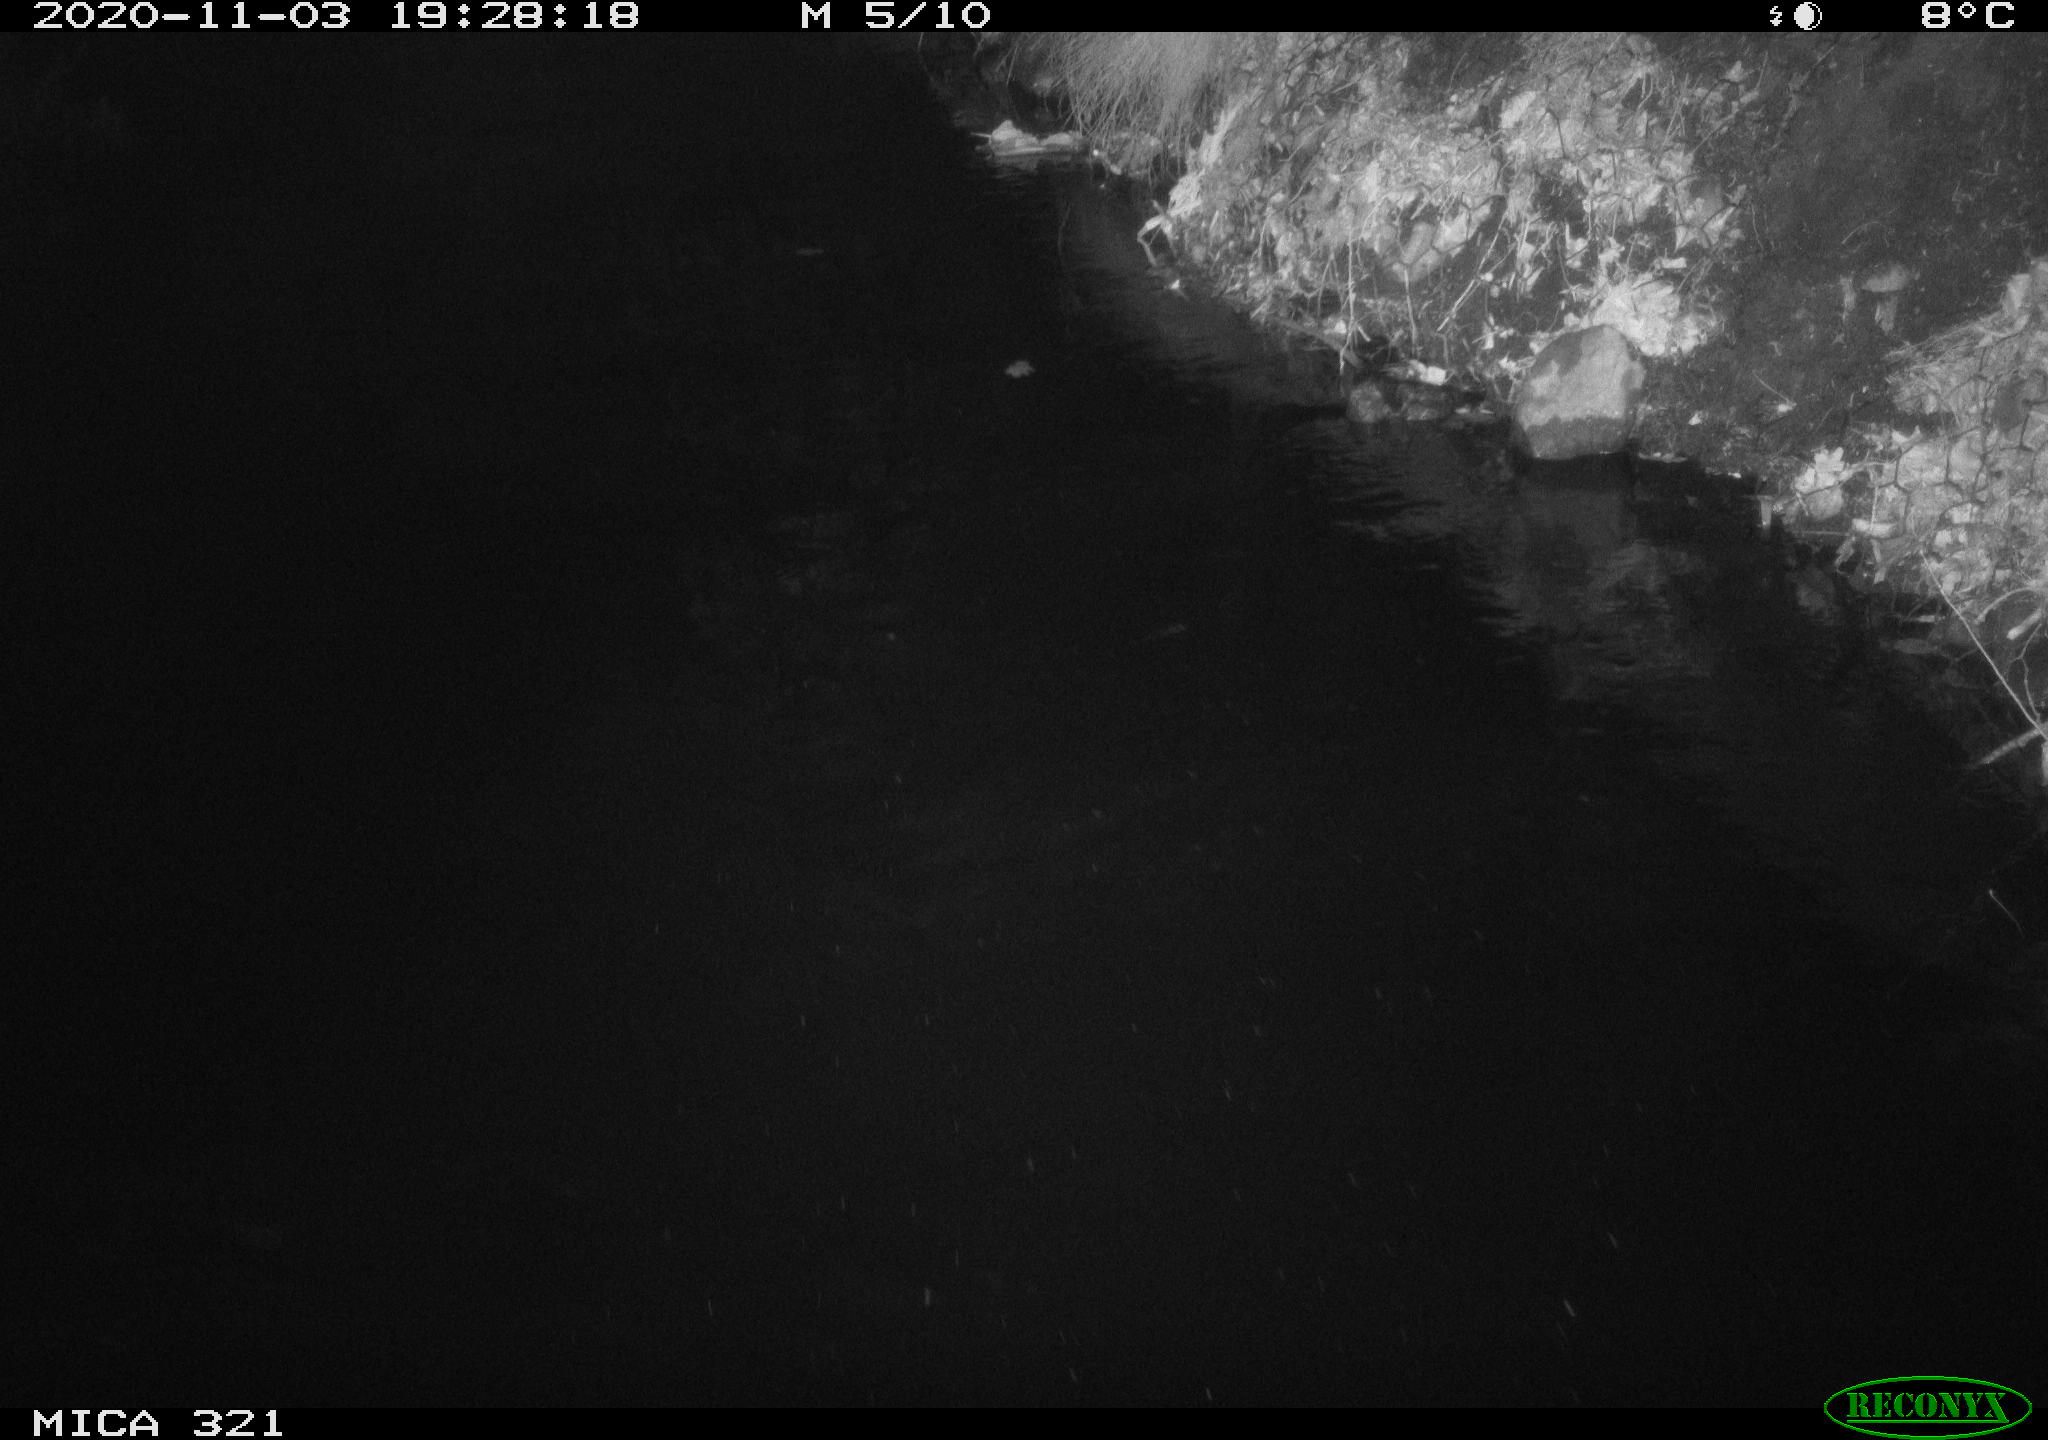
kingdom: Animalia
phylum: Chordata
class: Mammalia
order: Rodentia
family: Muridae
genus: Rattus
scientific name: Rattus norvegicus
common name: Brown rat
